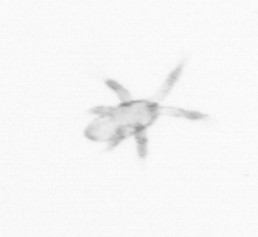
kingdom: Animalia
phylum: Arthropoda
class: Copepoda
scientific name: Copepoda
